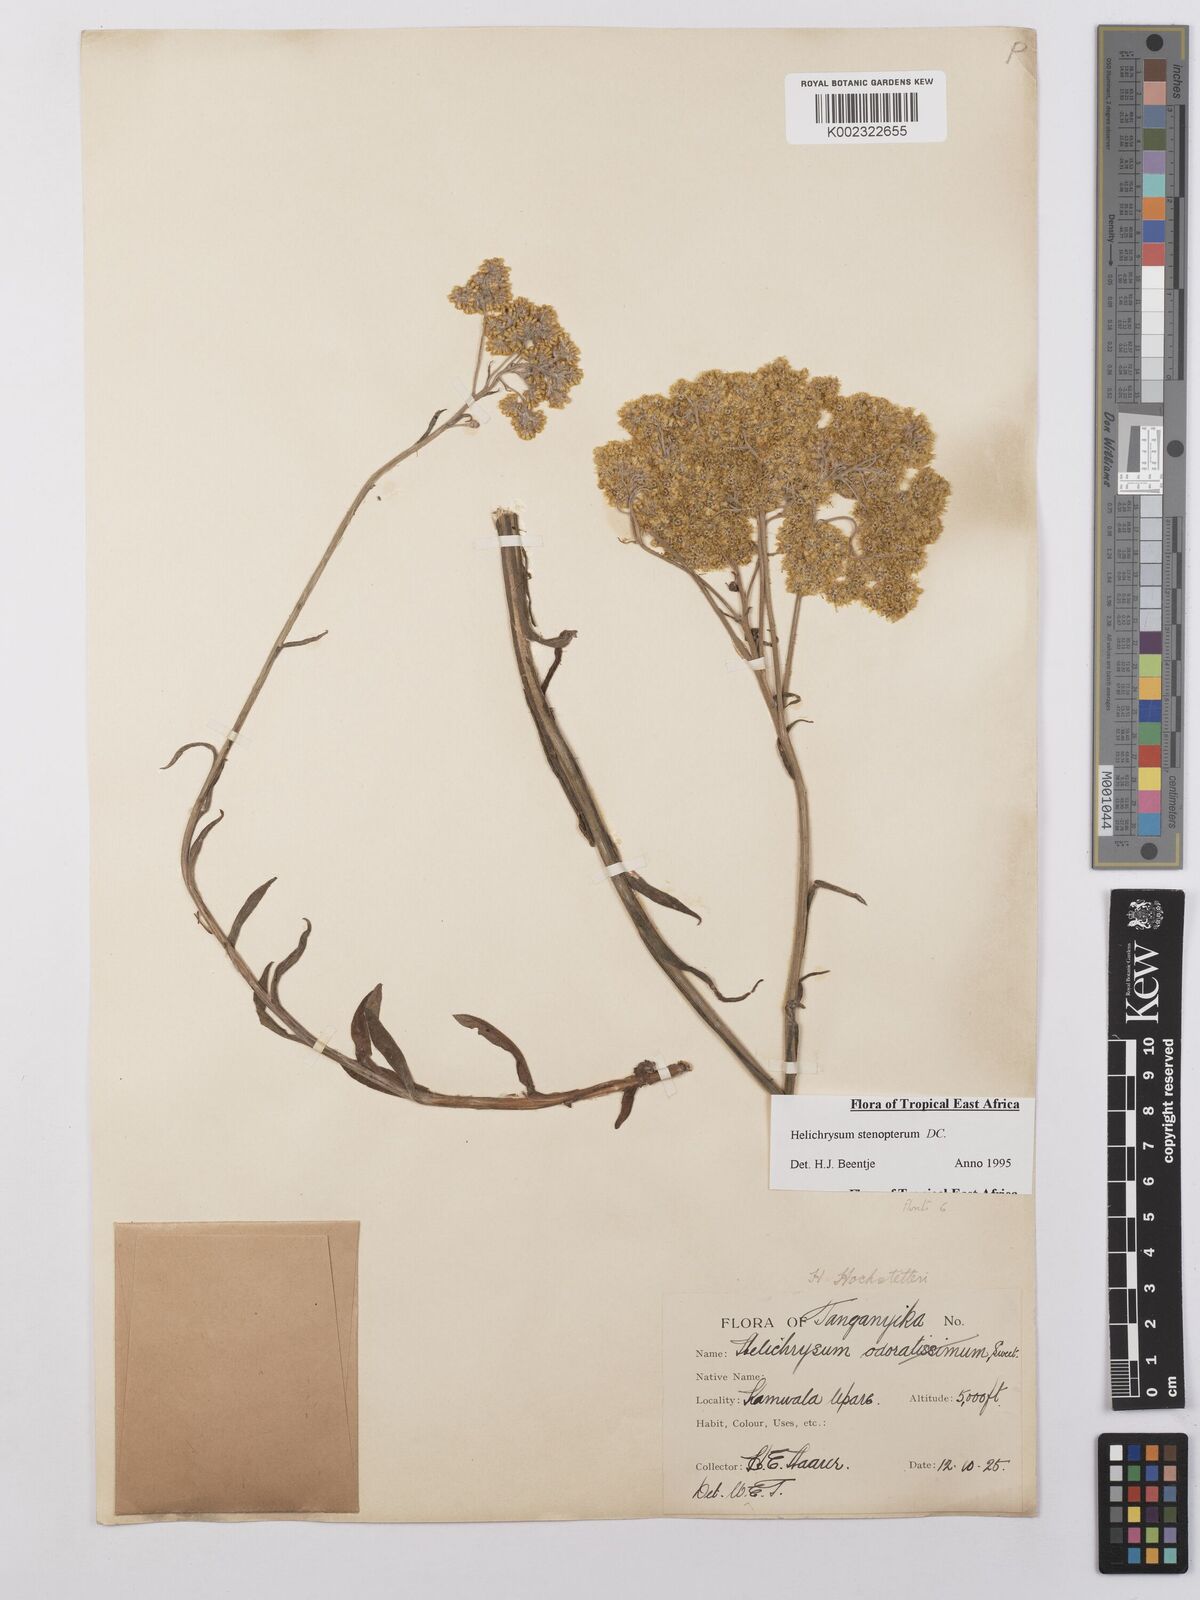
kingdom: Plantae
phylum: Tracheophyta
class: Magnoliopsida
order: Asterales
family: Asteraceae
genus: Helichrysum
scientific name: Helichrysum stenopterum
